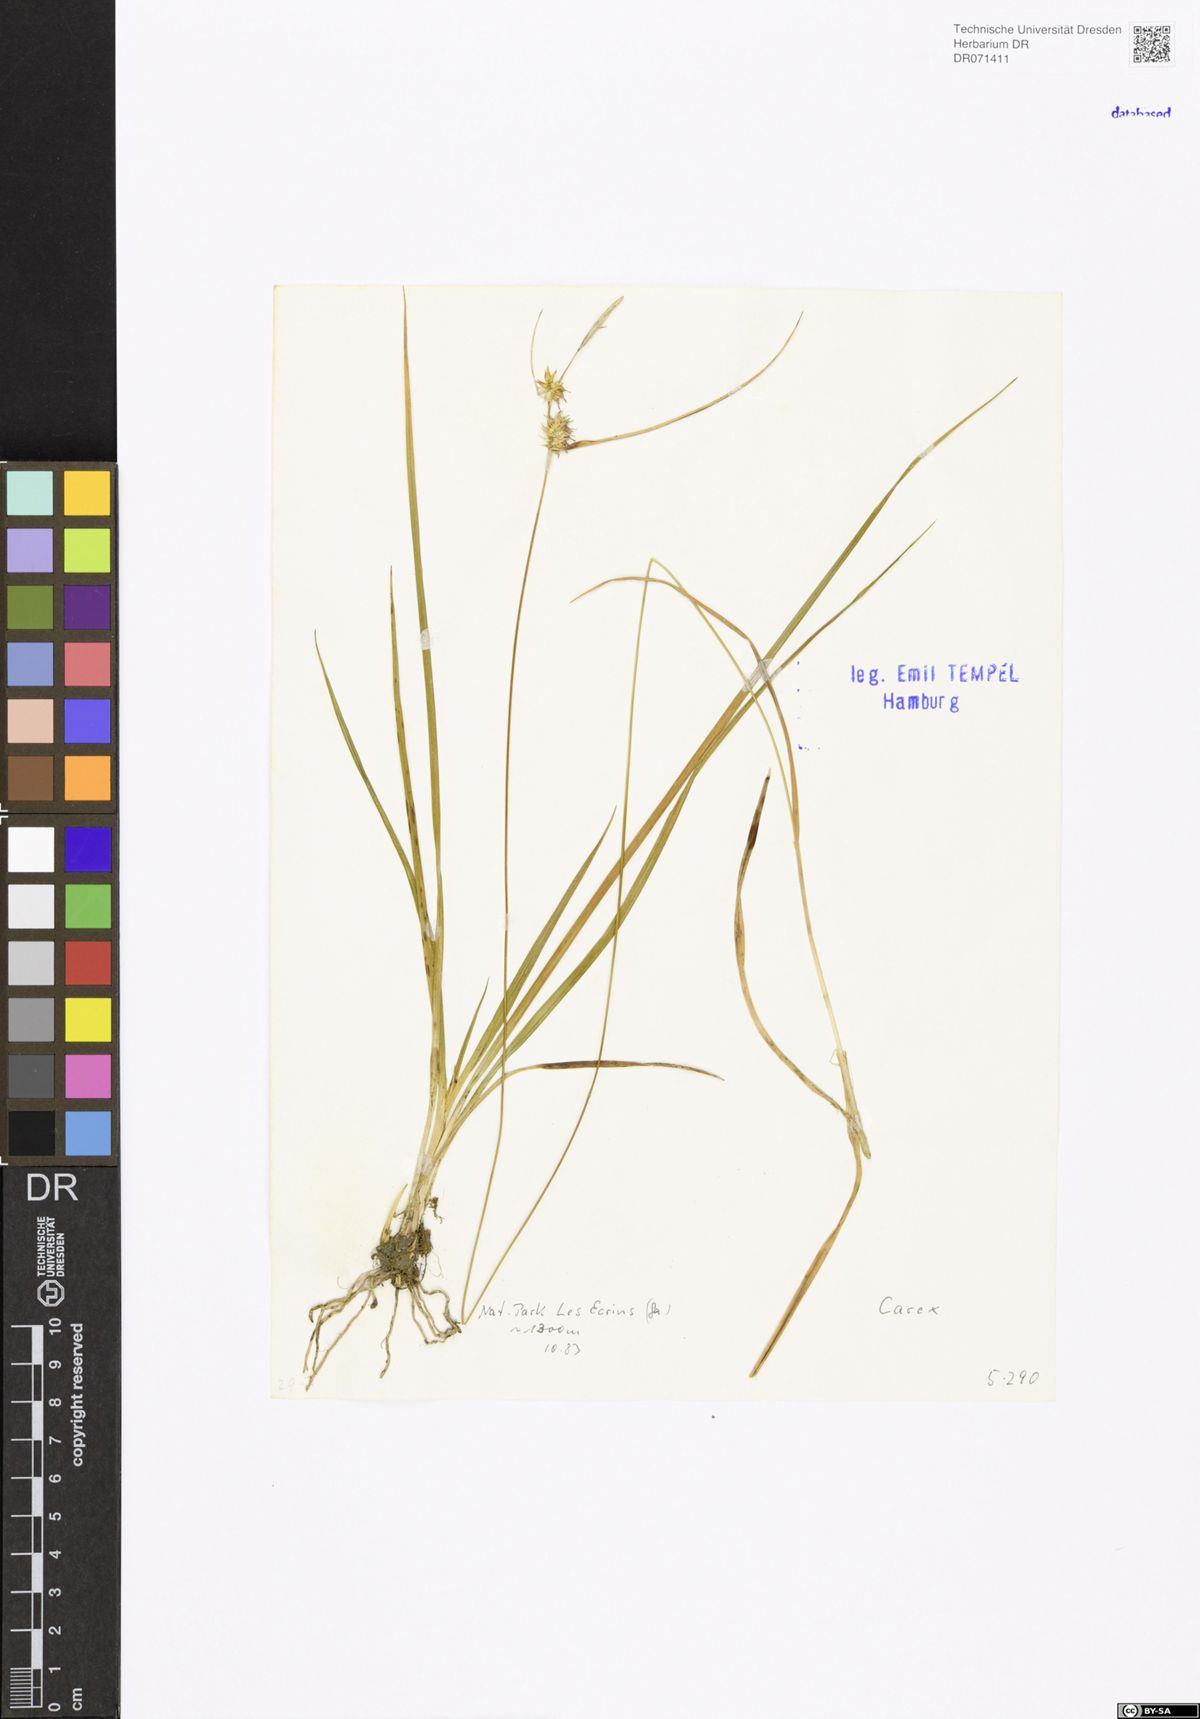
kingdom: Plantae
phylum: Tracheophyta
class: Liliopsida
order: Poales
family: Cyperaceae
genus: Carex
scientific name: Carex
